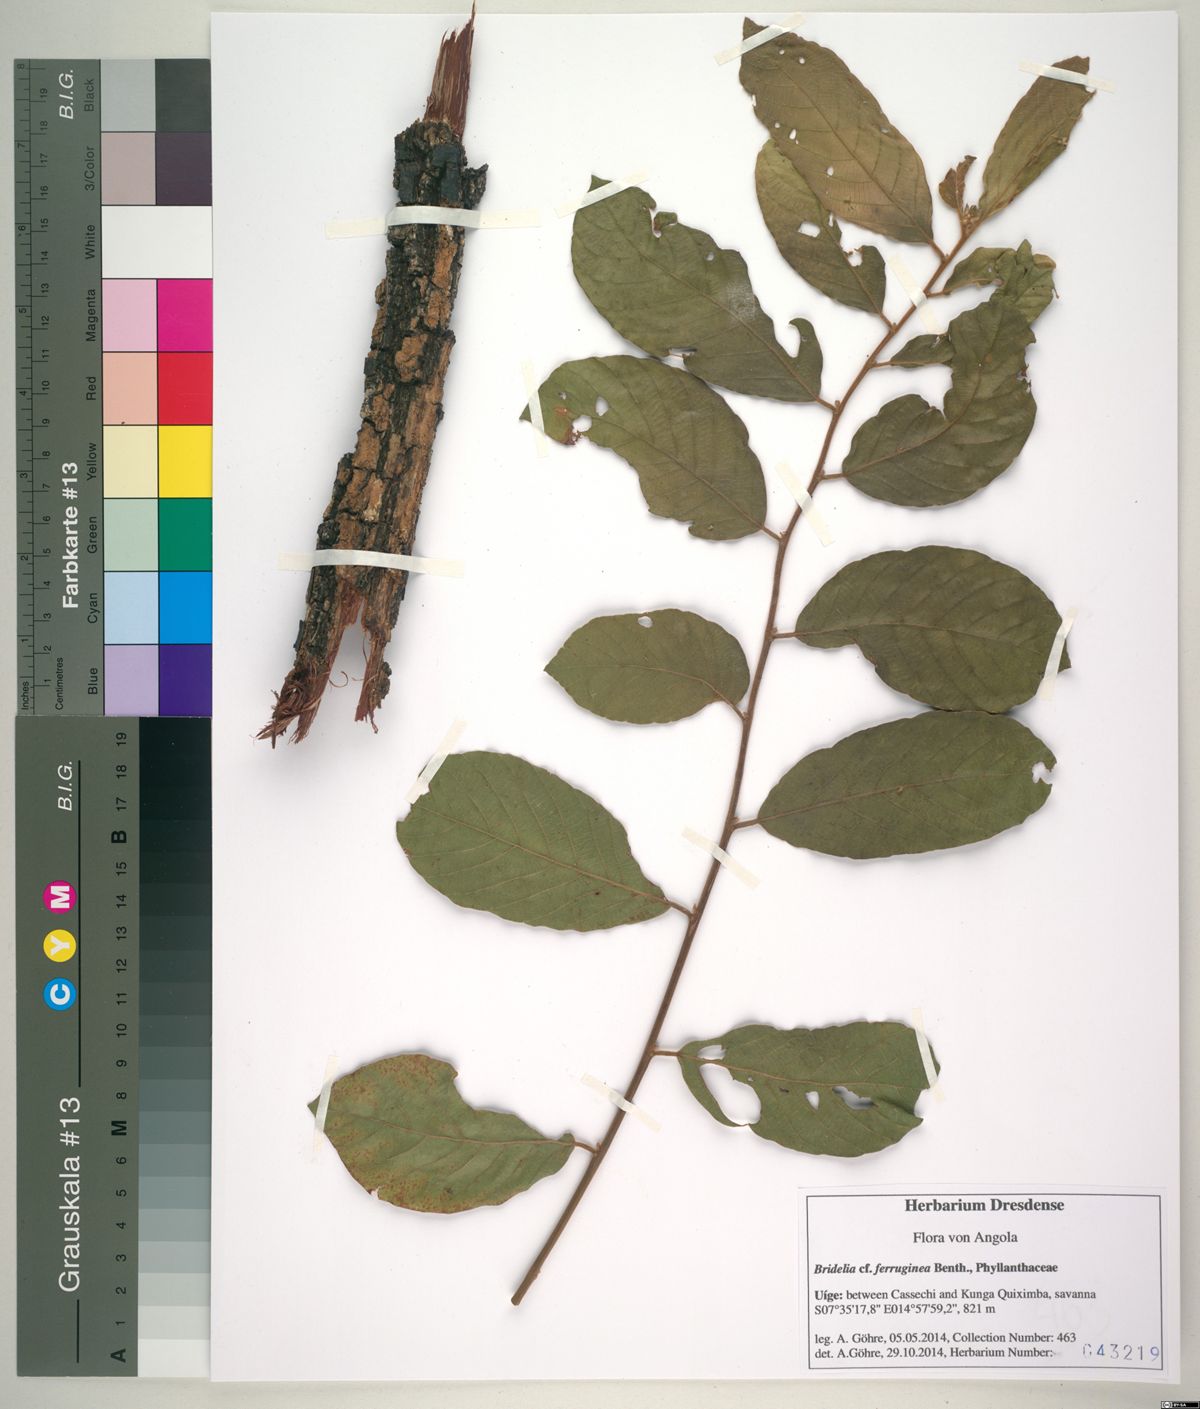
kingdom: Plantae
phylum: Tracheophyta
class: Magnoliopsida
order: Malpighiales
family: Phyllanthaceae
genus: Bridelia
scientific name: Bridelia ferruginea
